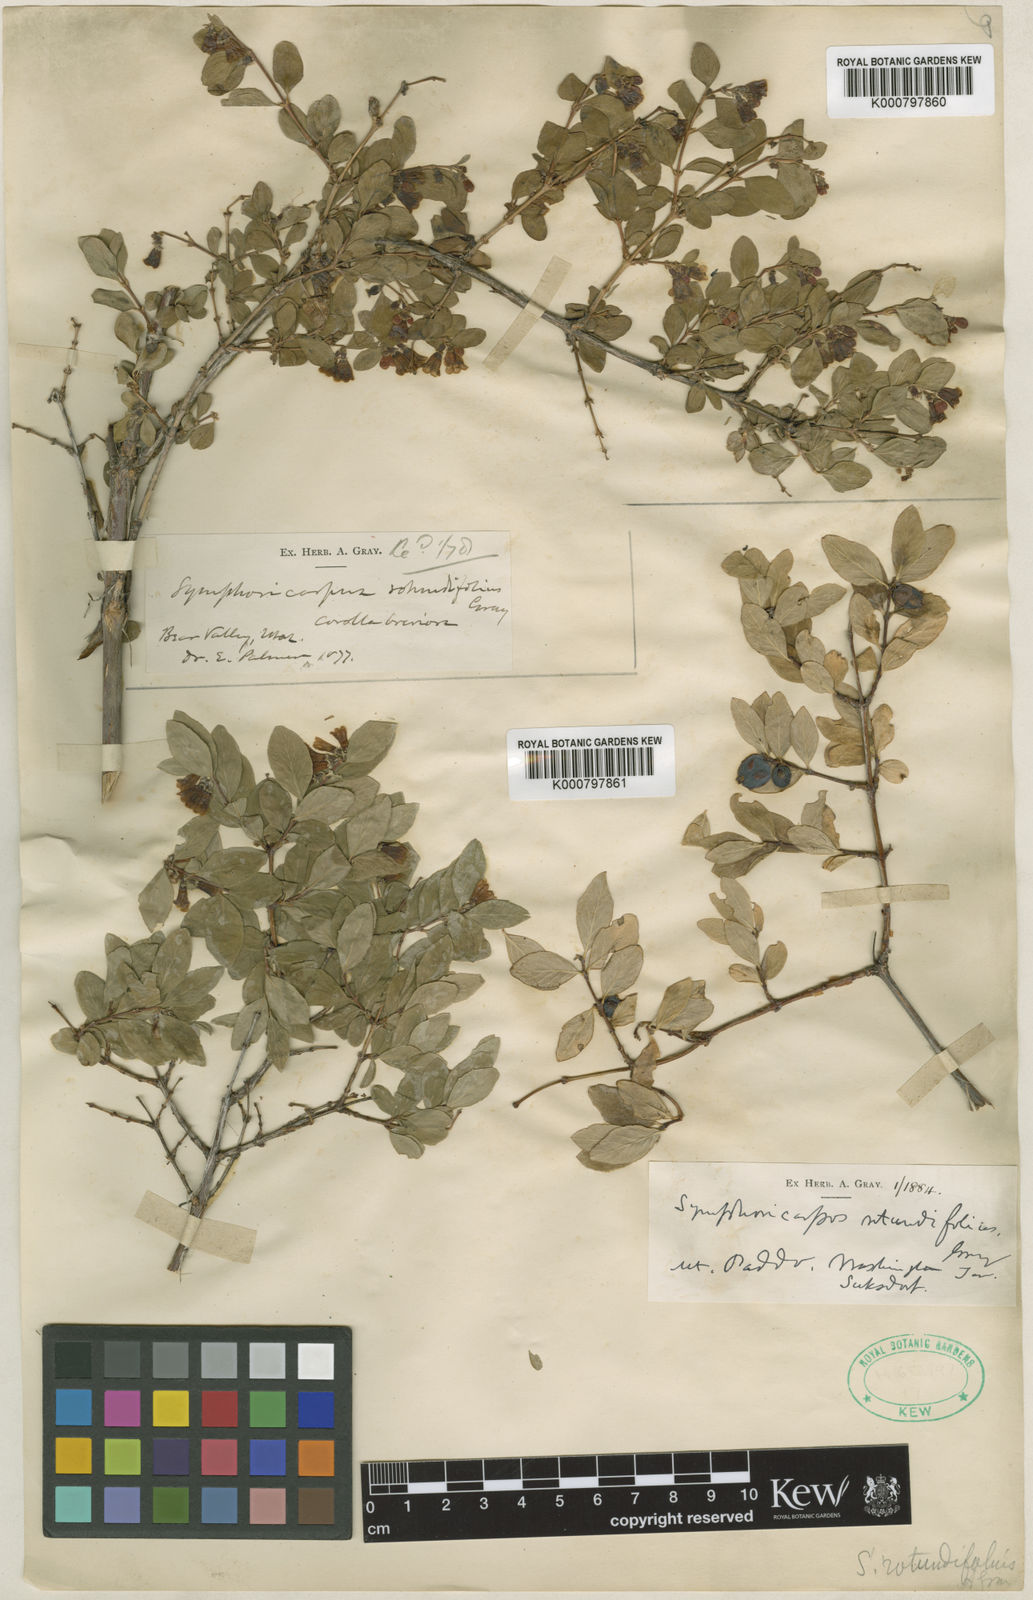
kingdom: Plantae
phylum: Tracheophyta
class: Magnoliopsida
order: Dipsacales
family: Caprifoliaceae
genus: Symphoricarpos
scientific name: Symphoricarpos rotundifolius
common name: Round-leaved snowberry
